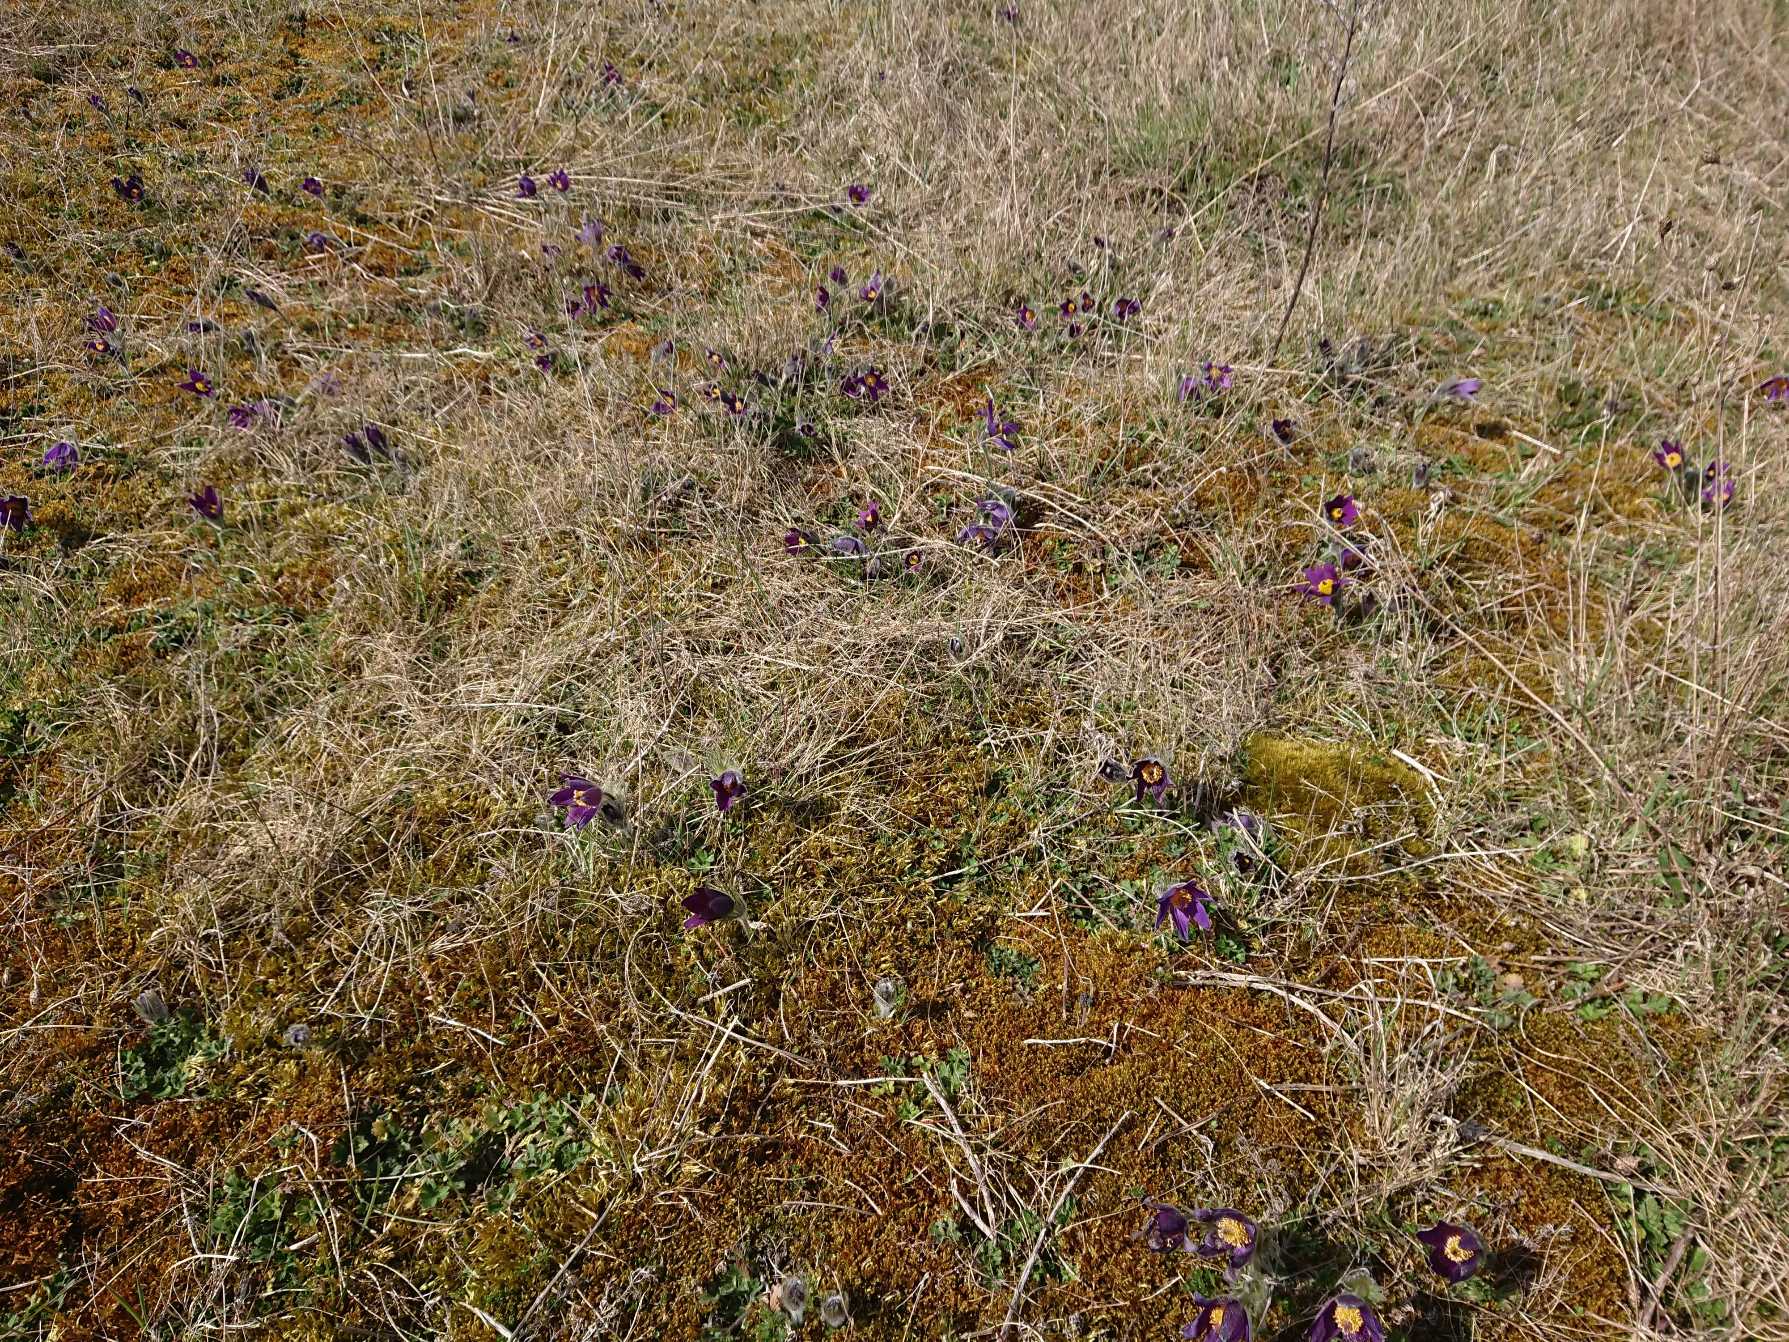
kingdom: Plantae
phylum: Tracheophyta
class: Magnoliopsida
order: Ranunculales
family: Ranunculaceae
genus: Pulsatilla
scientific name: Pulsatilla vulgaris
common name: Opret kobjælde
